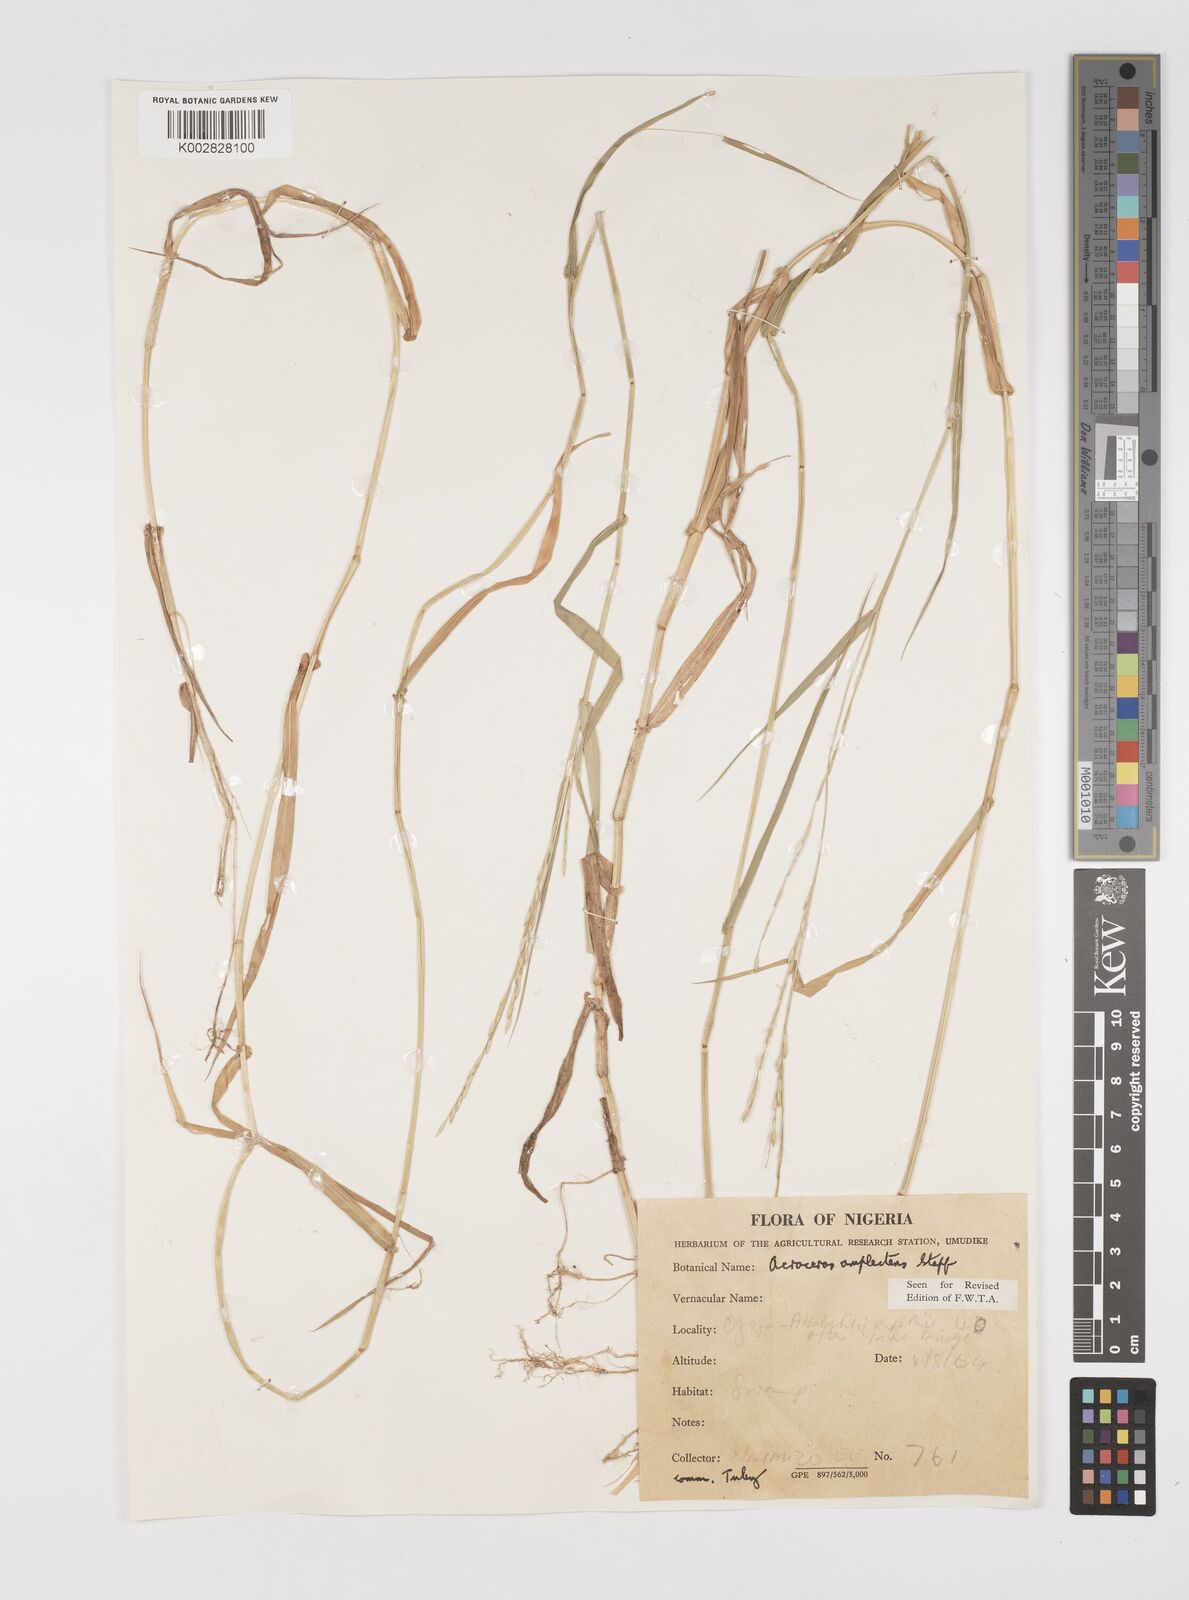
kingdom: Plantae
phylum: Tracheophyta
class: Liliopsida
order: Poales
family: Poaceae
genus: Acroceras
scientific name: Acroceras amplectens
